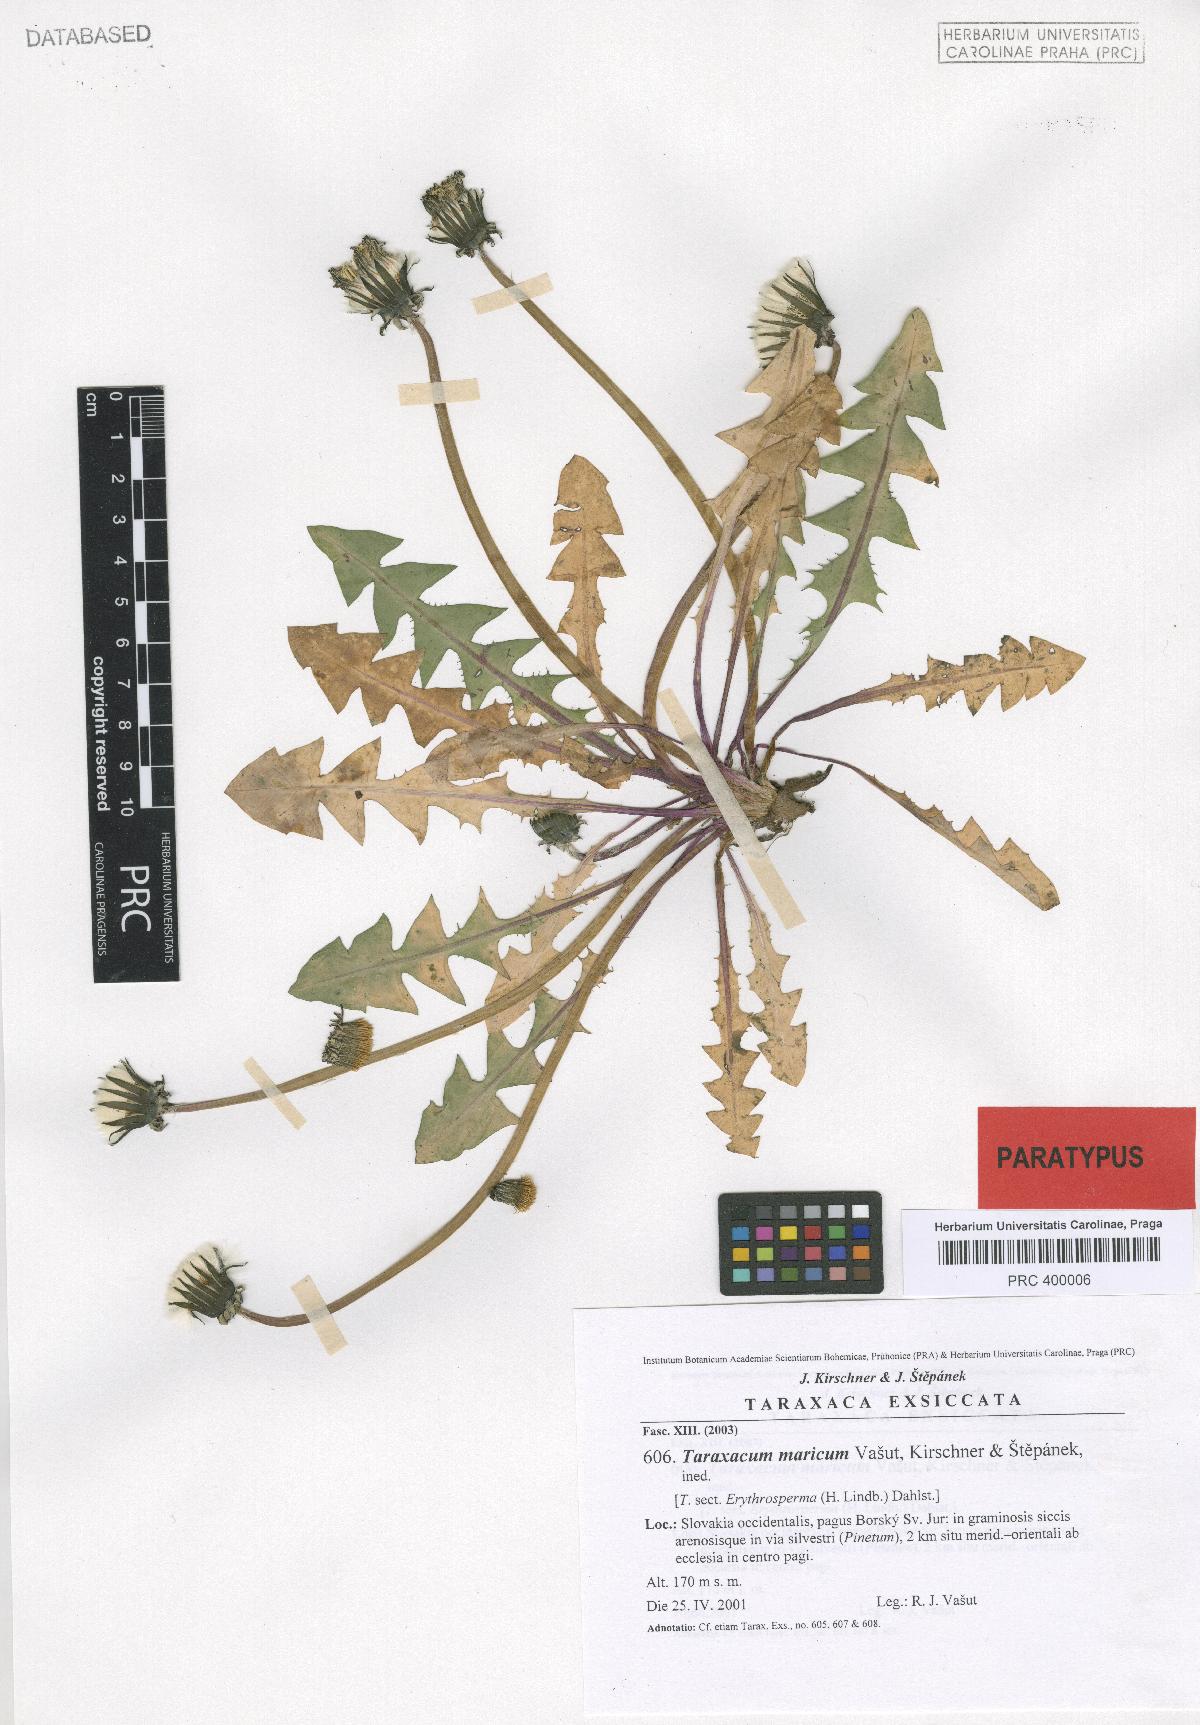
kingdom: Plantae
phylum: Tracheophyta
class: Magnoliopsida
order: Asterales
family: Asteraceae
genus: Taraxacum
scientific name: Taraxacum maricum
